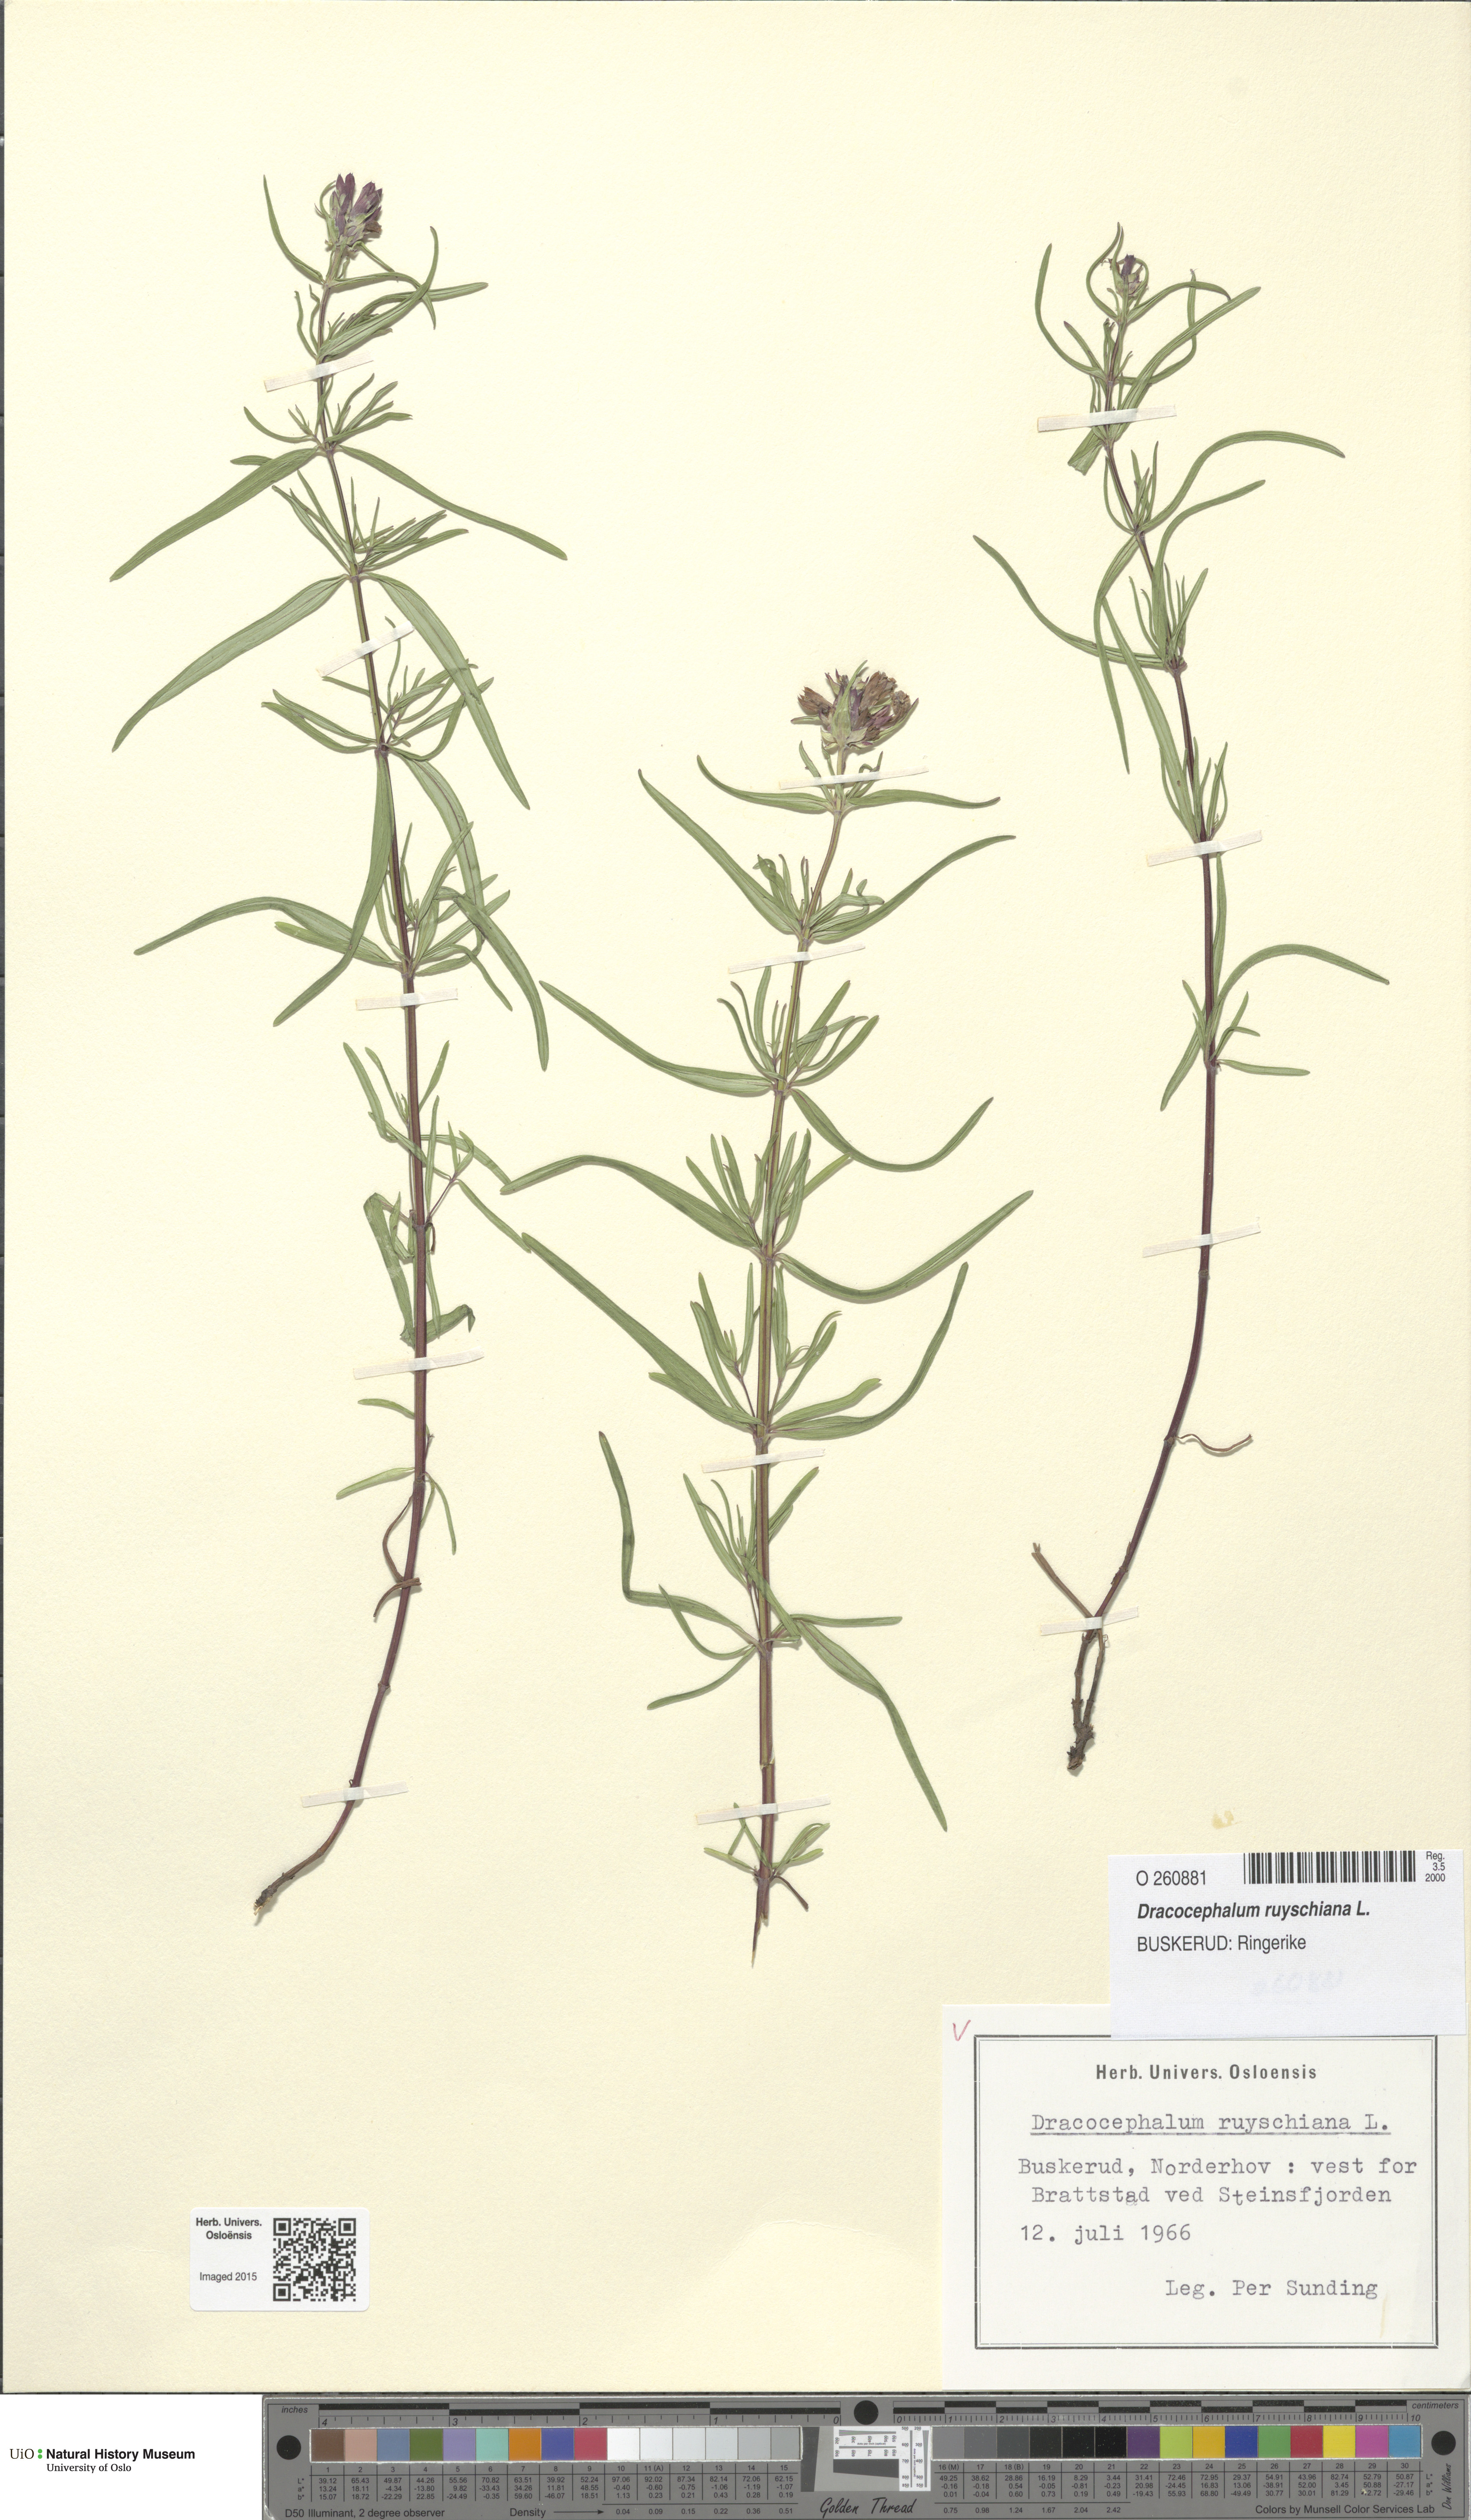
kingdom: Plantae
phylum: Tracheophyta
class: Magnoliopsida
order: Lamiales
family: Lamiaceae
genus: Dracocephalum
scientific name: Dracocephalum ruyschiana
